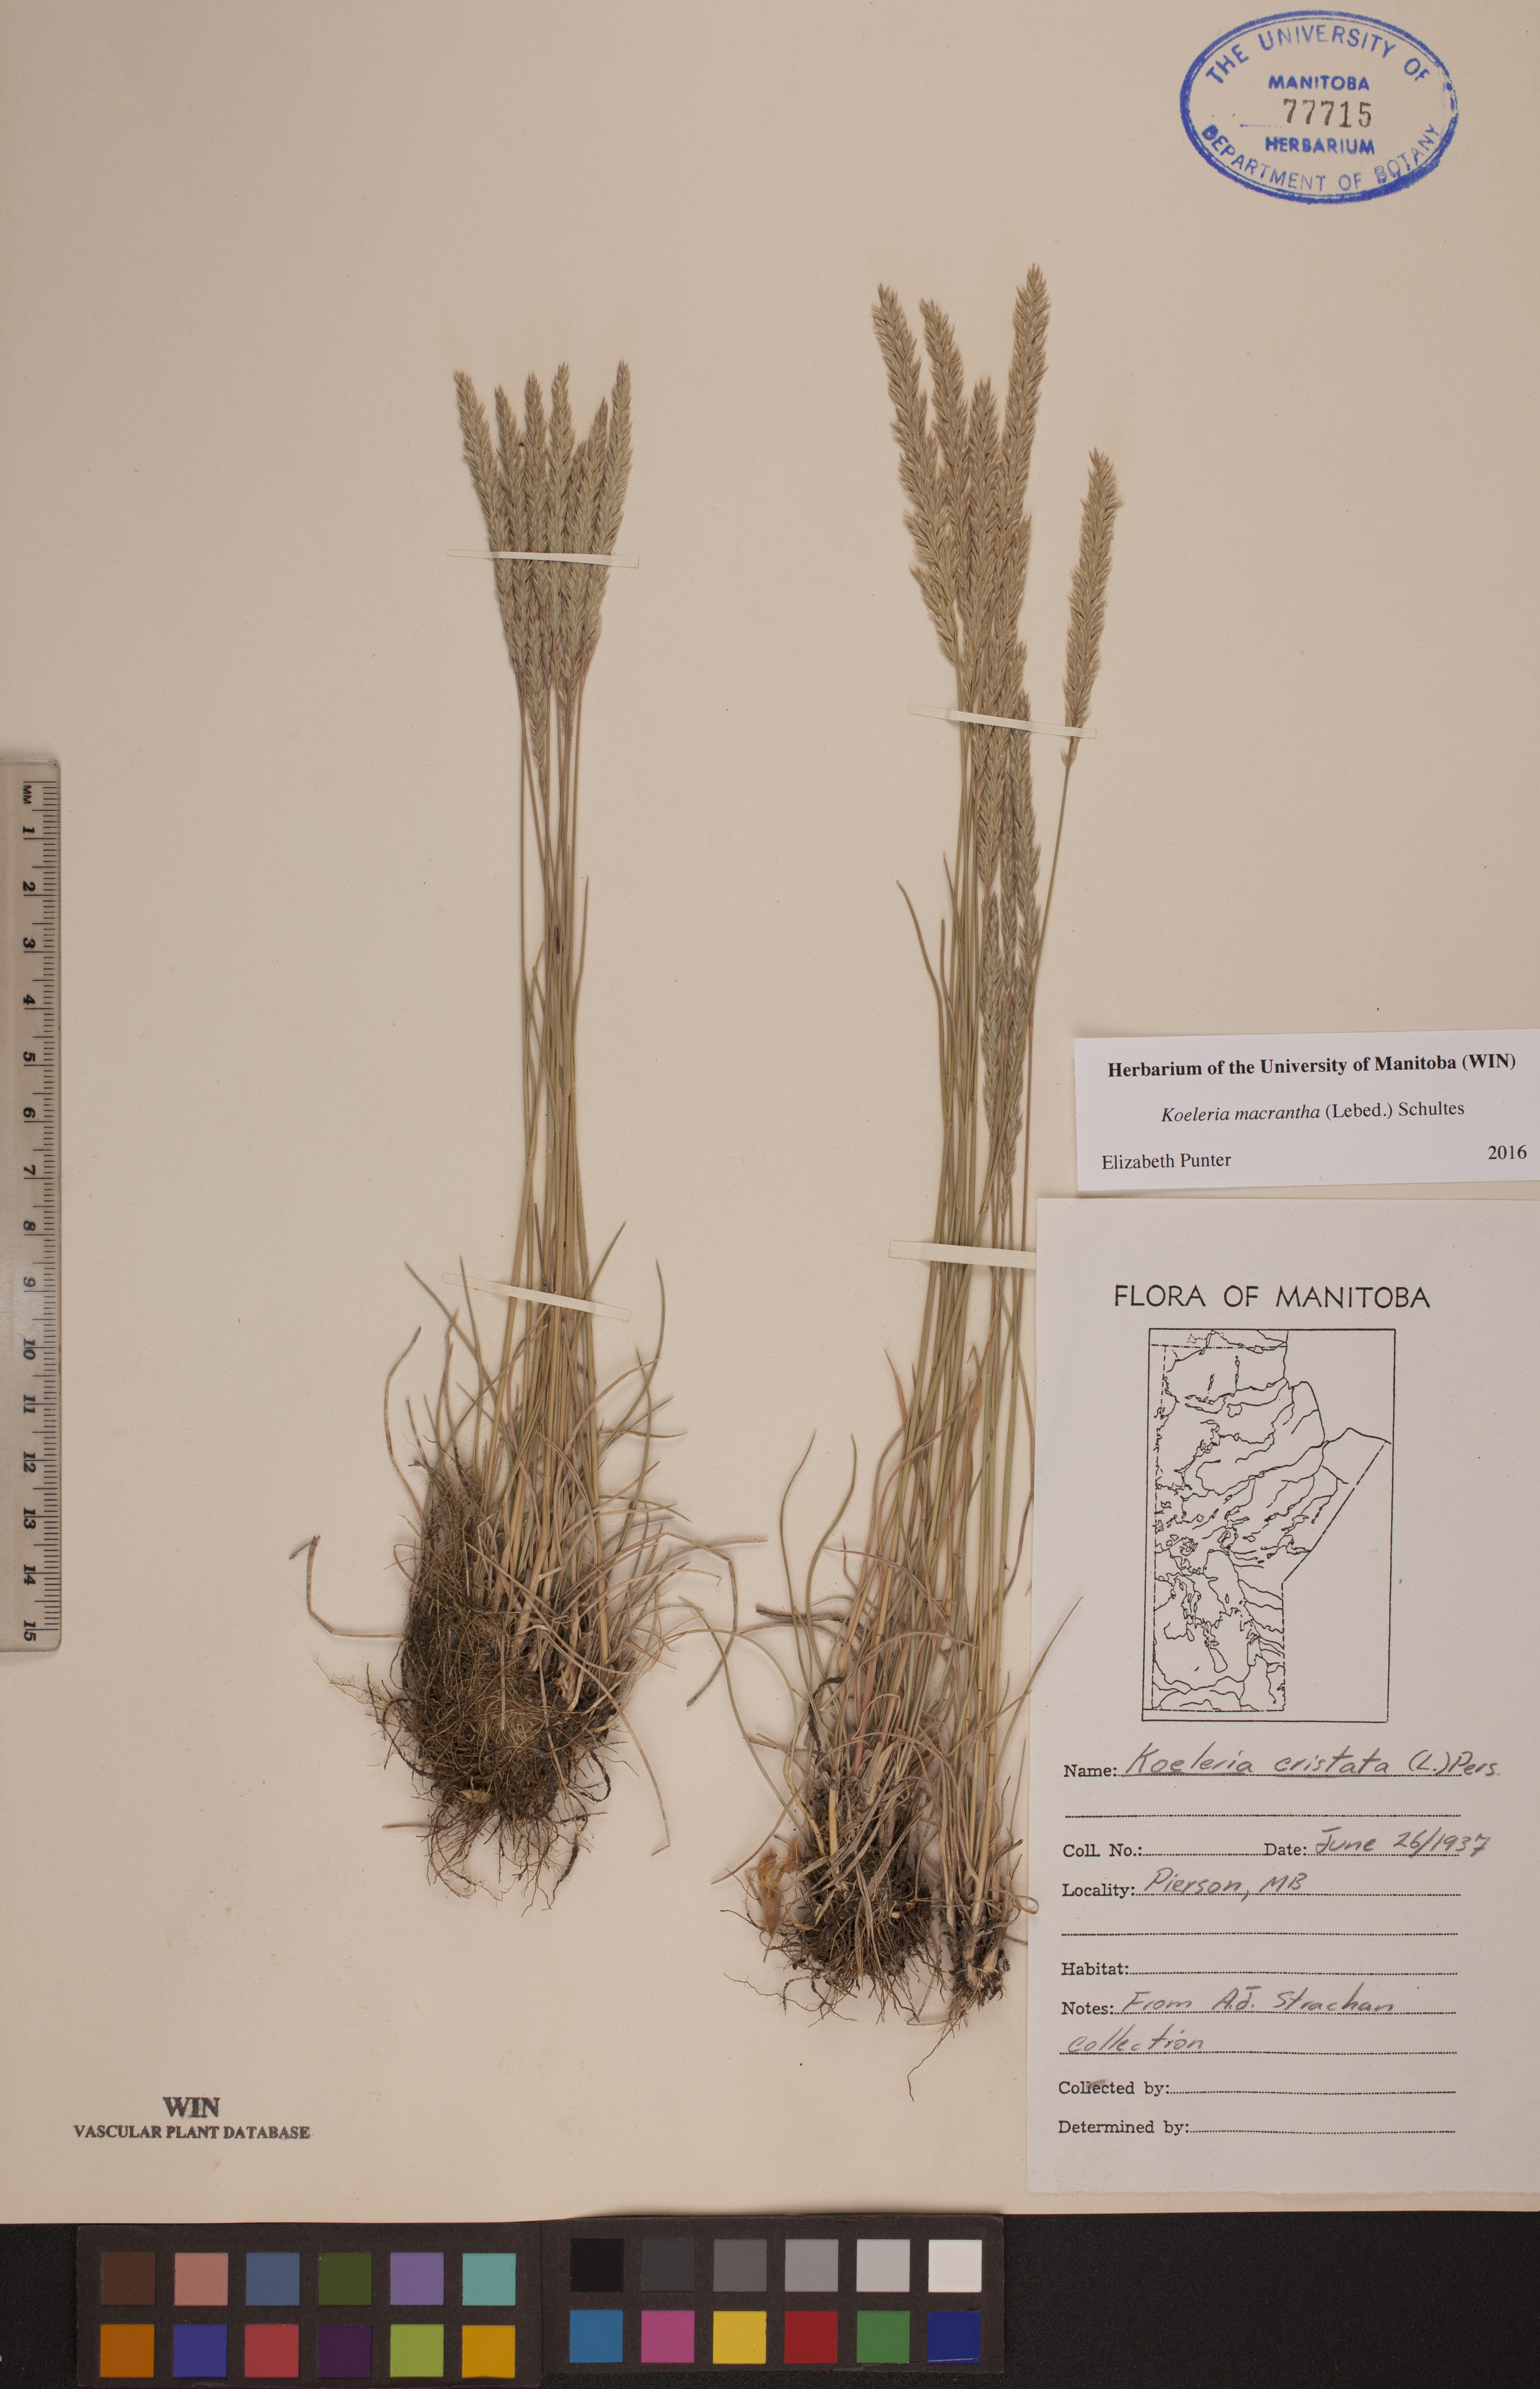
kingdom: Plantae
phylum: Tracheophyta
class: Liliopsida
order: Poales
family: Poaceae
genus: Koeleria
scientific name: Koeleria macrantha
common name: Crested hair-grass
